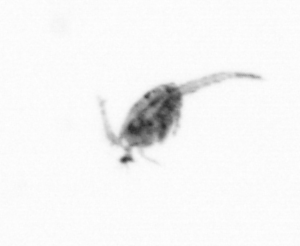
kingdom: Animalia
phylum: Arthropoda
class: Copepoda
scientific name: Copepoda
